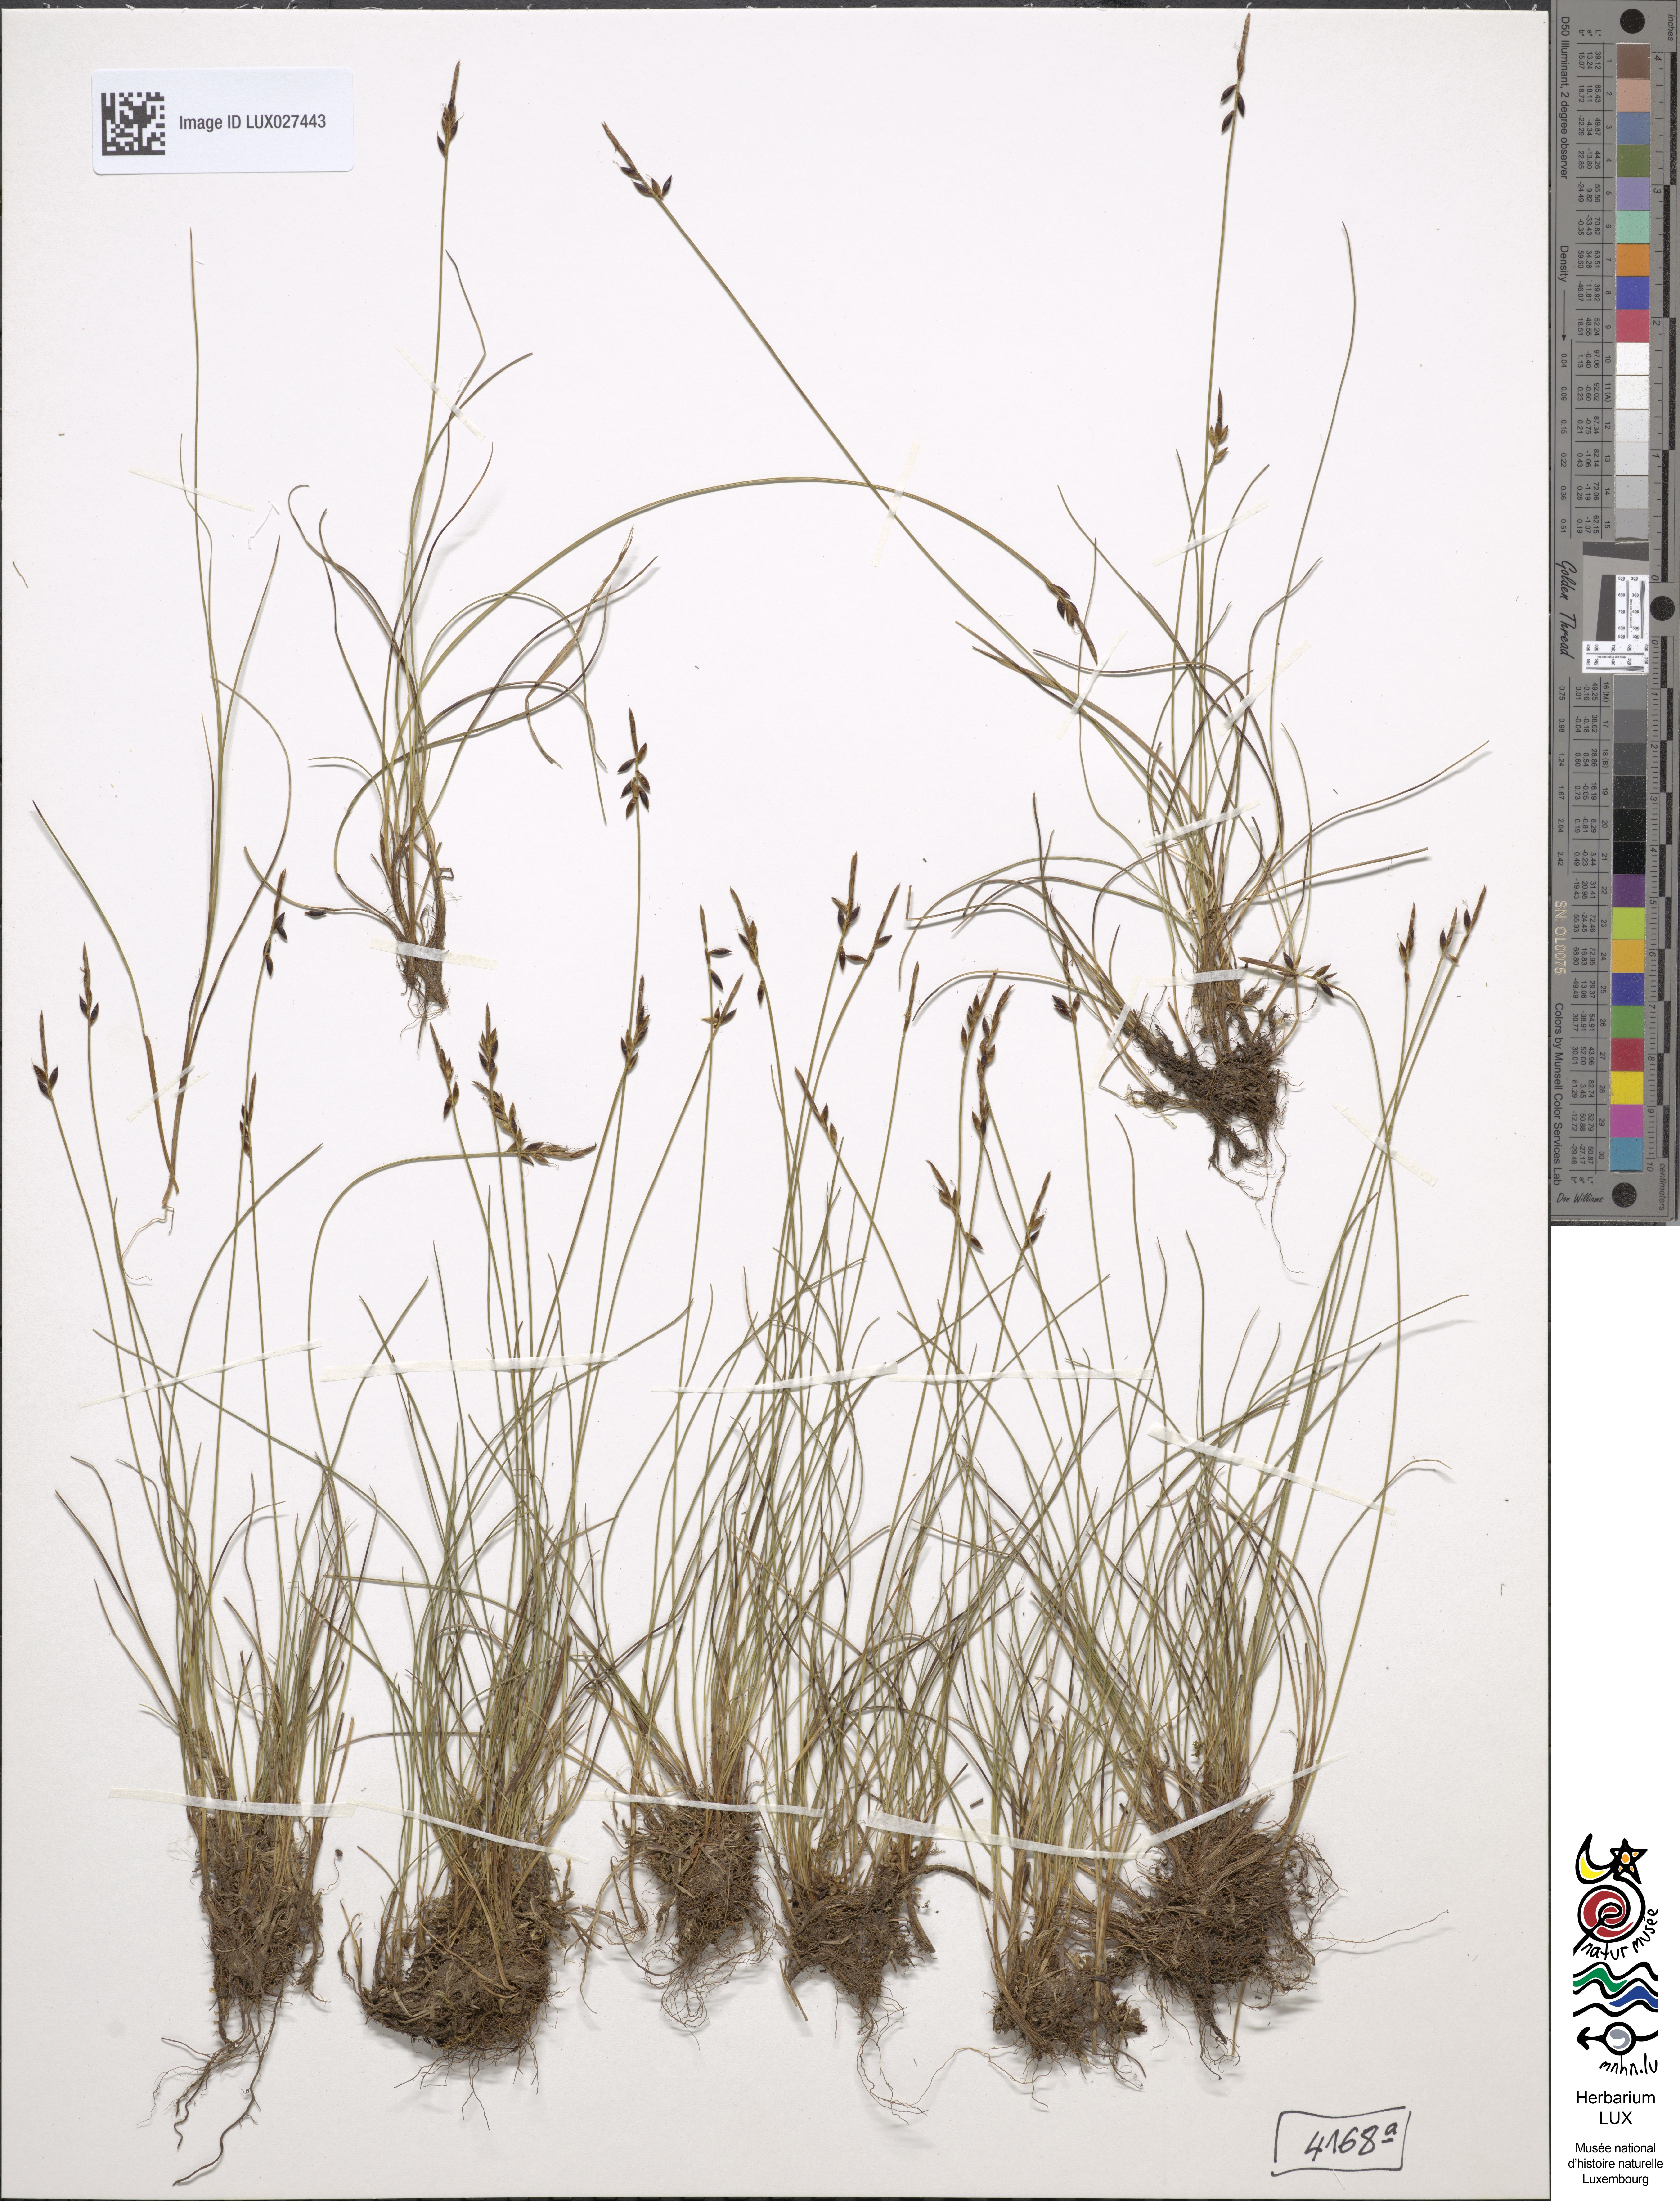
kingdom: Plantae
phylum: Tracheophyta
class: Liliopsida
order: Poales
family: Cyperaceae
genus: Carex
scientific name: Carex pulicaris
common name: Flea sedge
